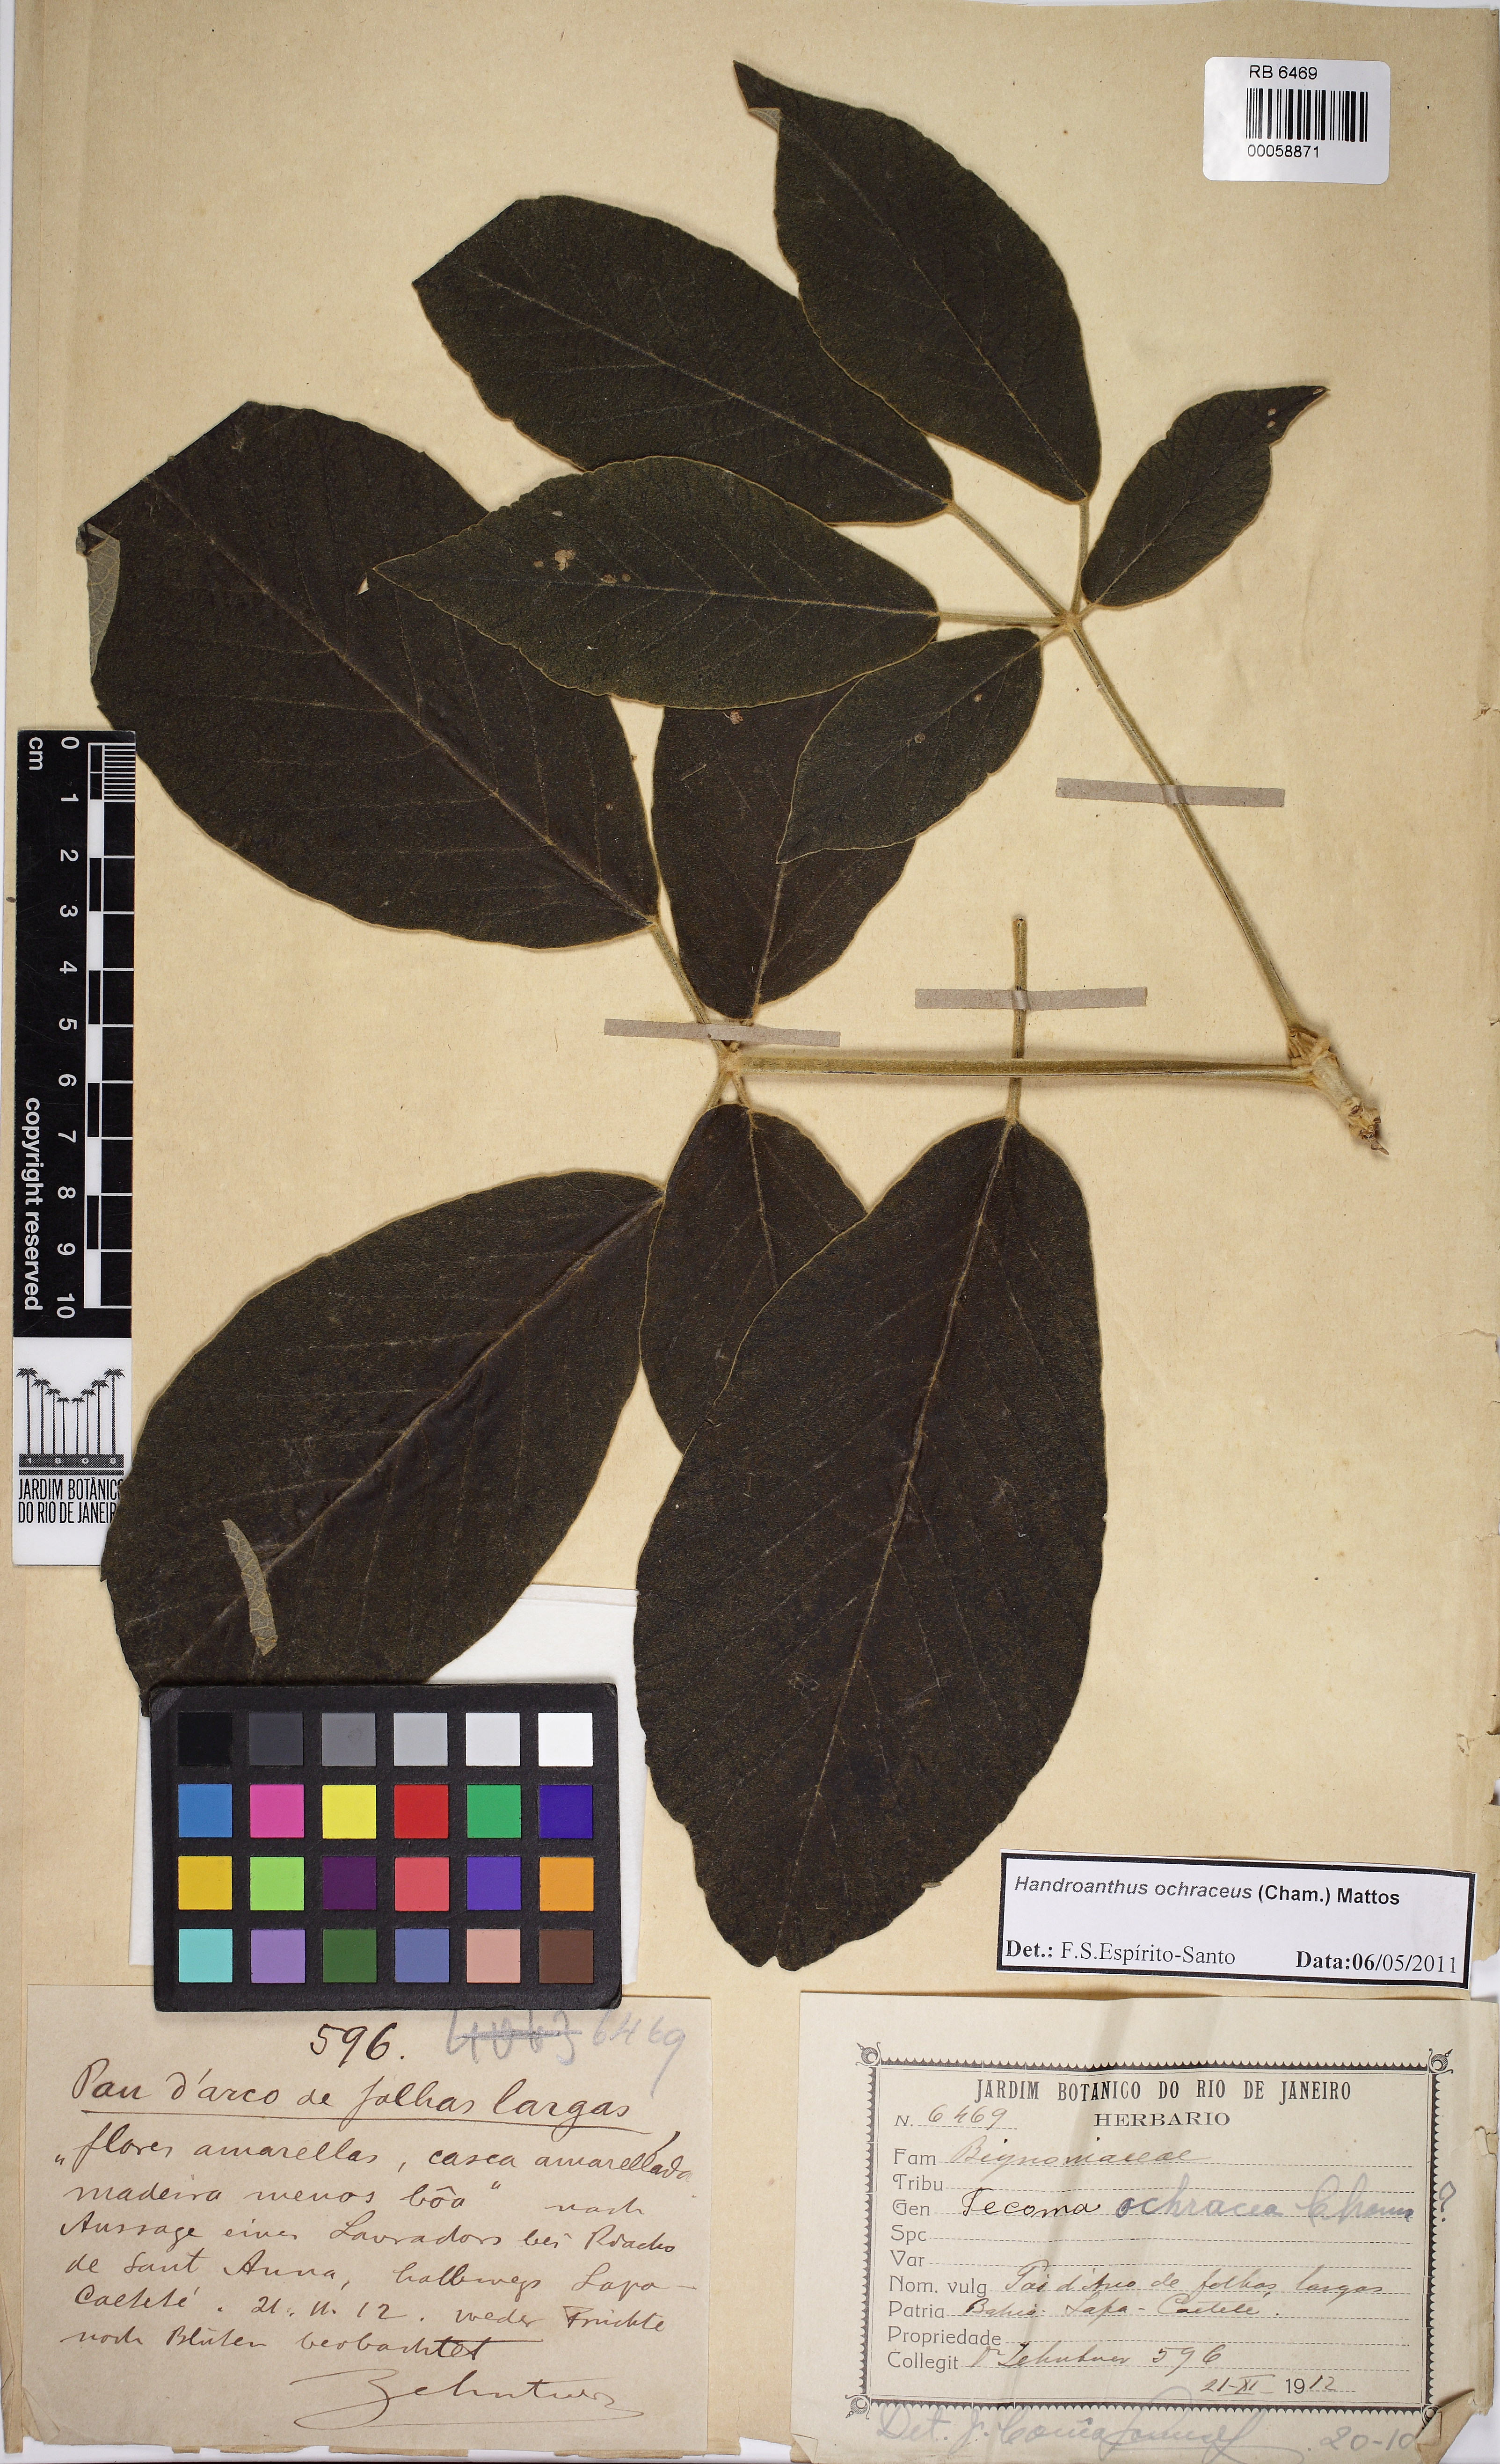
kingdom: Plantae
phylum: Tracheophyta
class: Magnoliopsida
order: Lamiales
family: Bignoniaceae
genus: Handroanthus
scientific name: Handroanthus ochraceus
